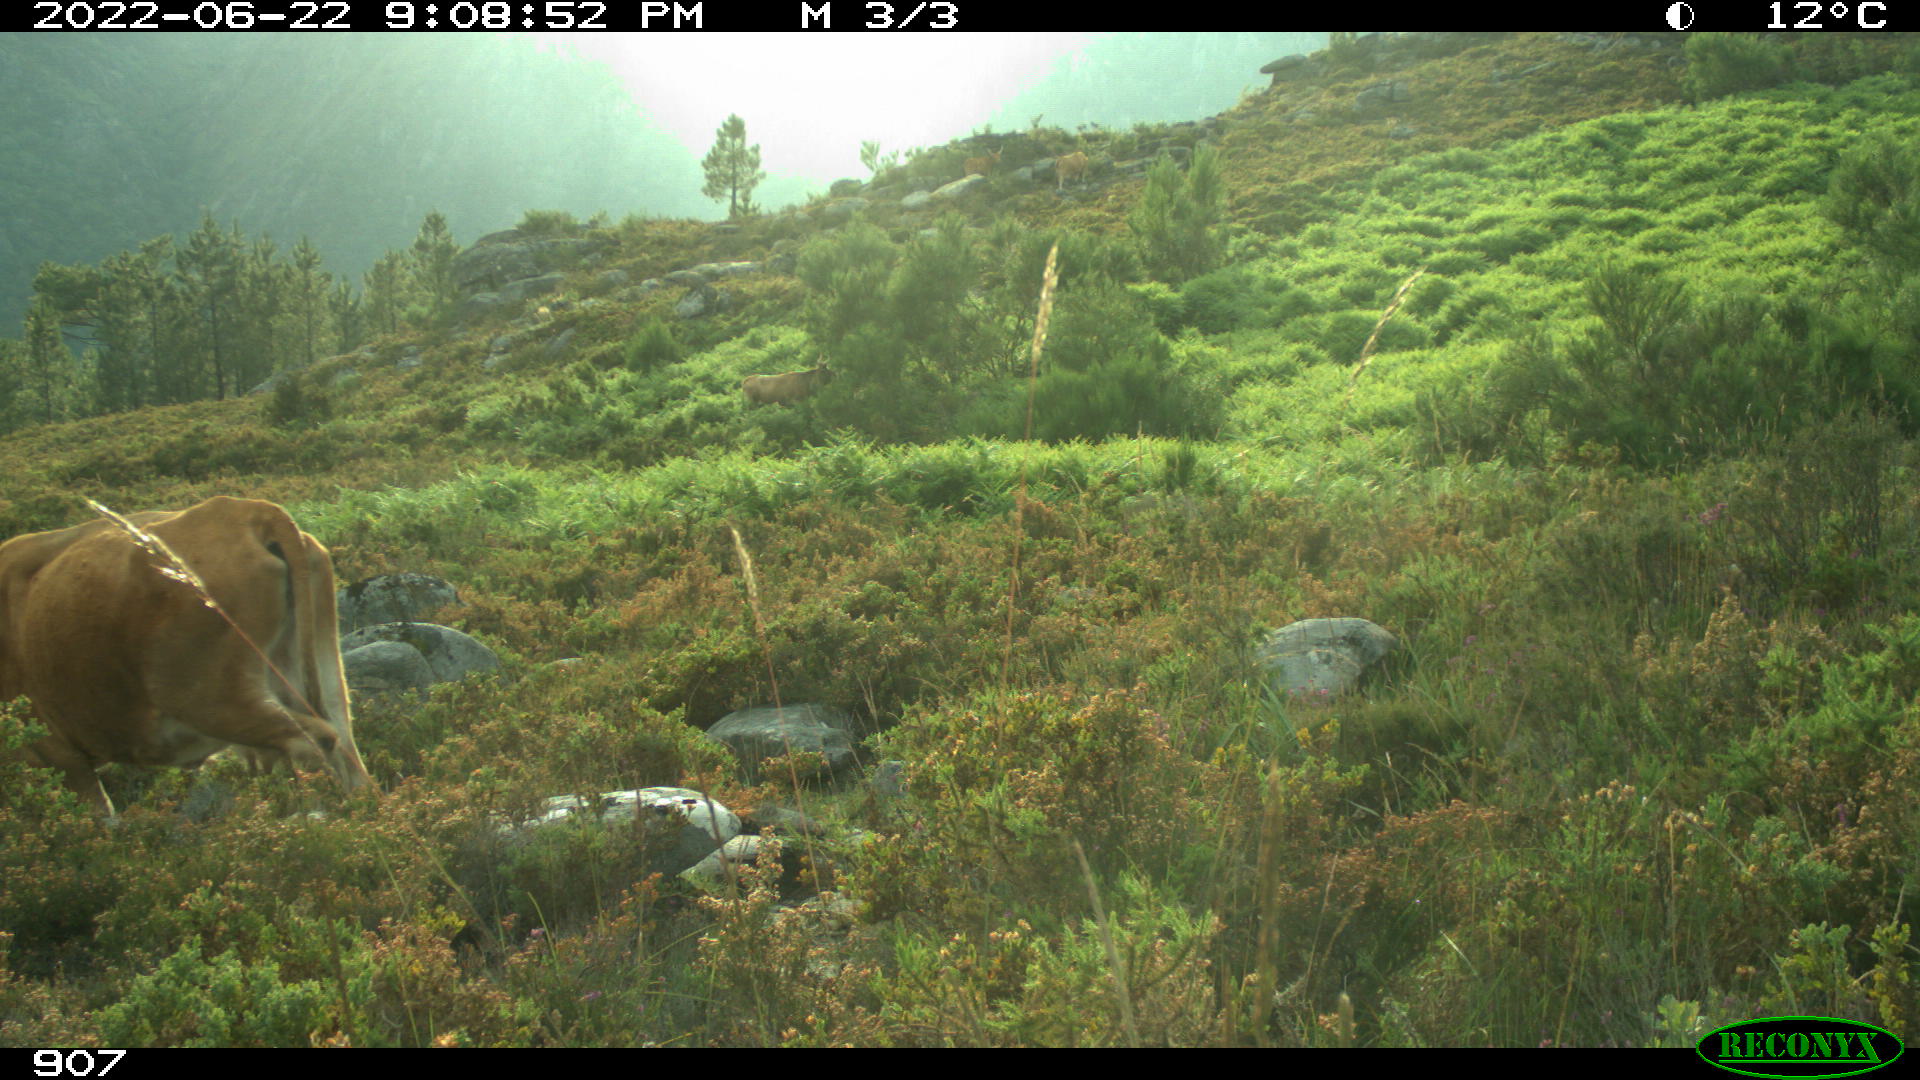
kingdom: Animalia
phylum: Chordata
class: Mammalia
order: Artiodactyla
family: Bovidae
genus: Bos
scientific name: Bos taurus
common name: Domesticated cattle
